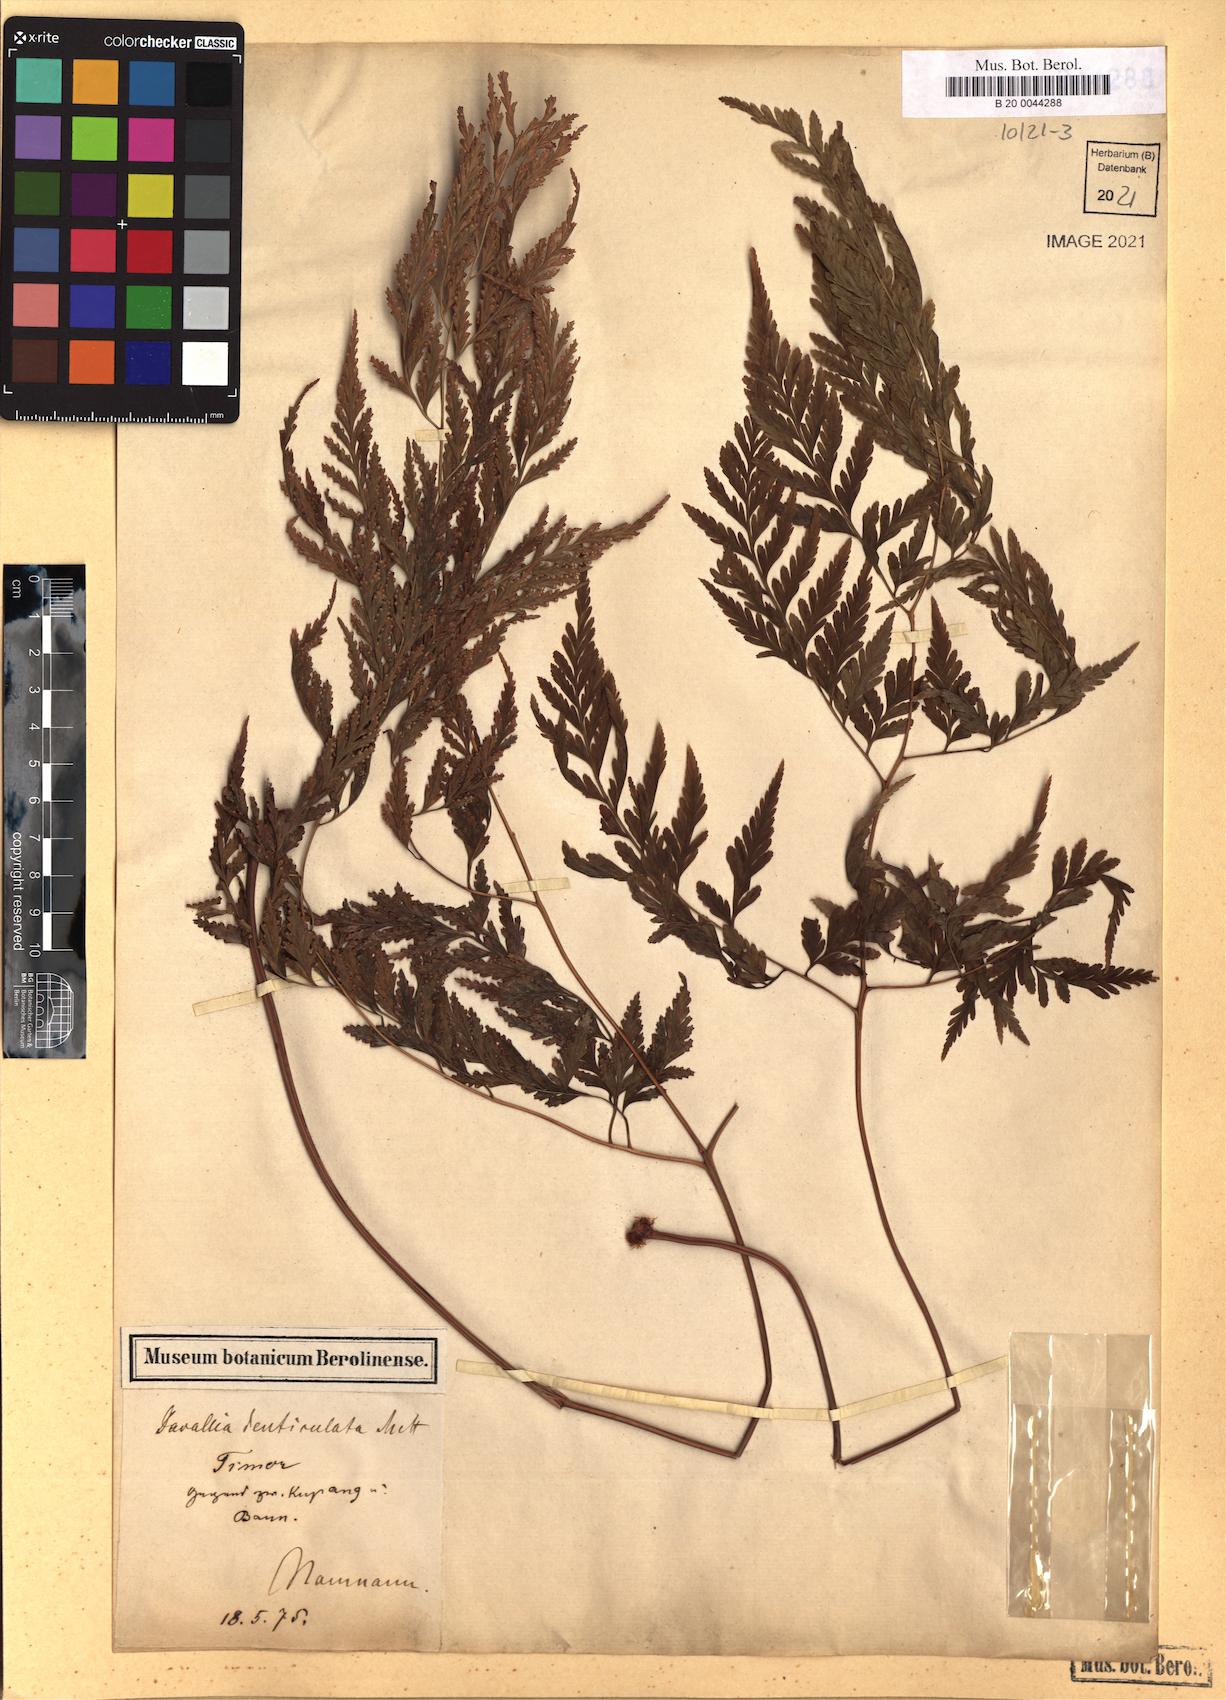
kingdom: Plantae
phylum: Tracheophyta
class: Polypodiopsida
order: Polypodiales
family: Davalliaceae
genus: Davallia
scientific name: Davallia denticulata
